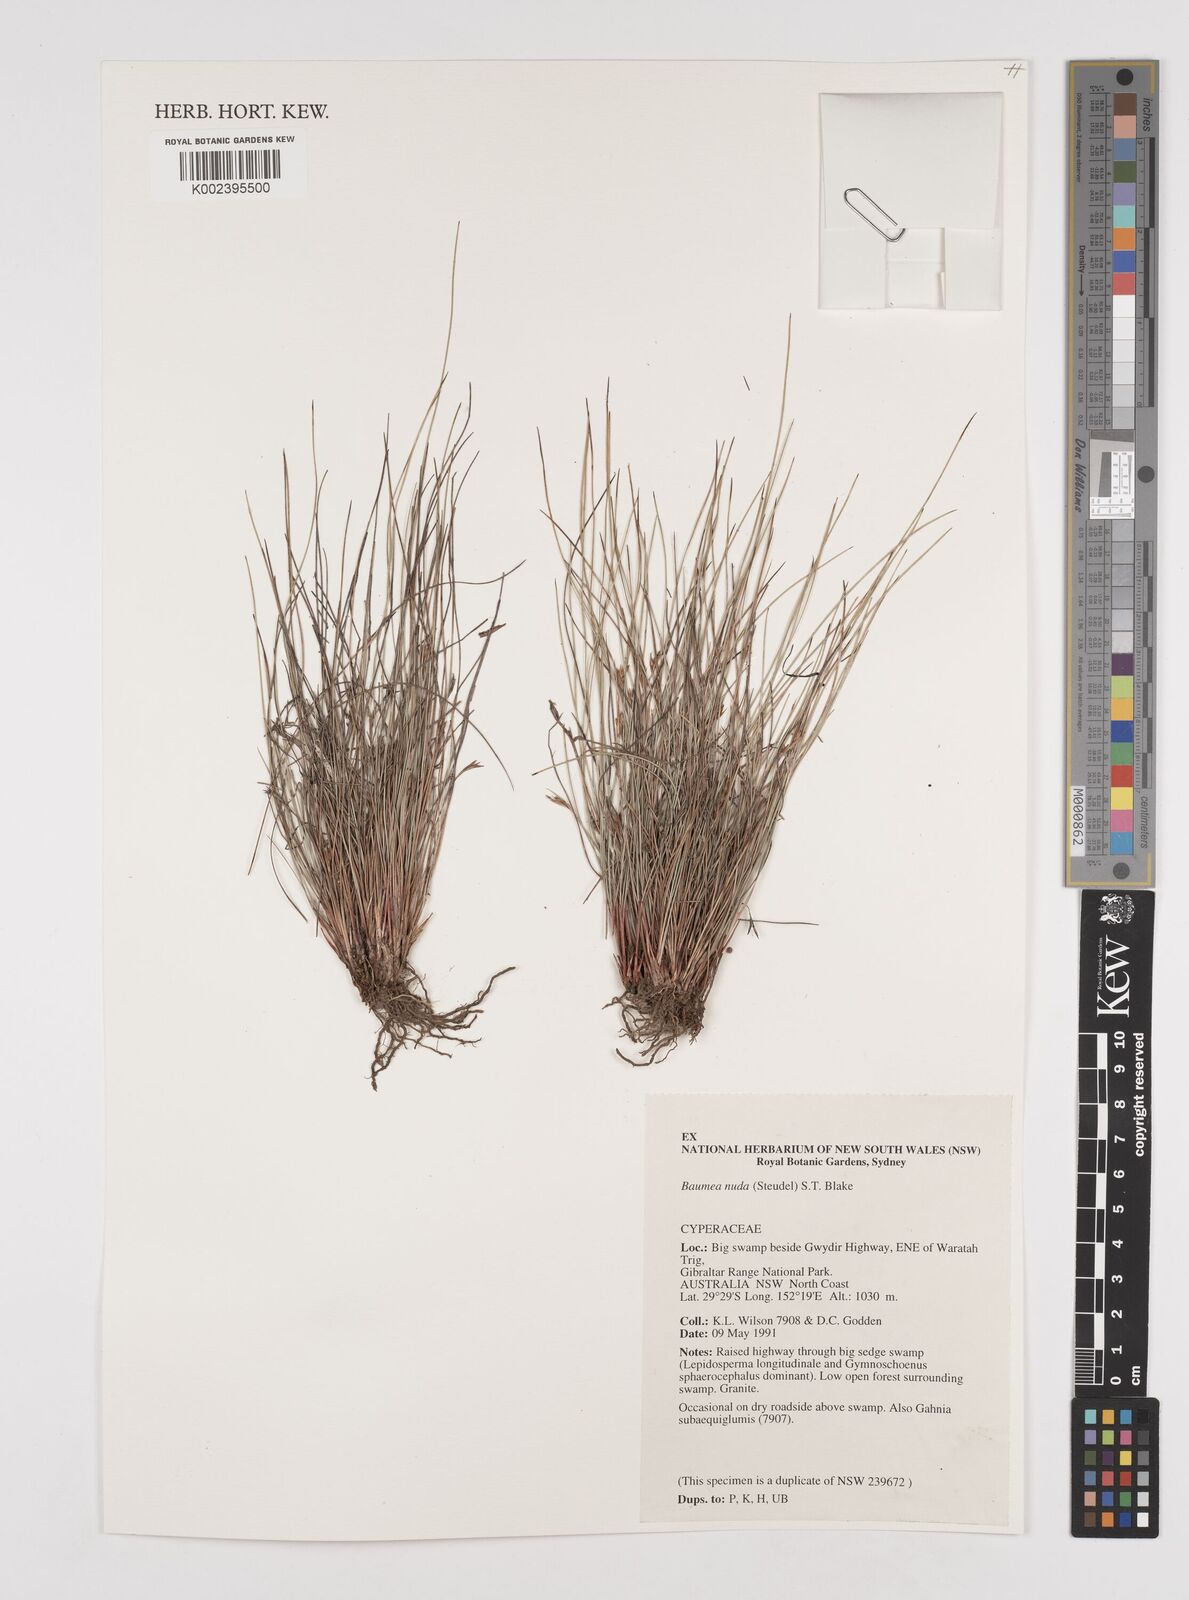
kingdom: Plantae
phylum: Tracheophyta
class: Liliopsida
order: Poales
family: Cyperaceae
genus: Machaerina
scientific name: Machaerina nuda
